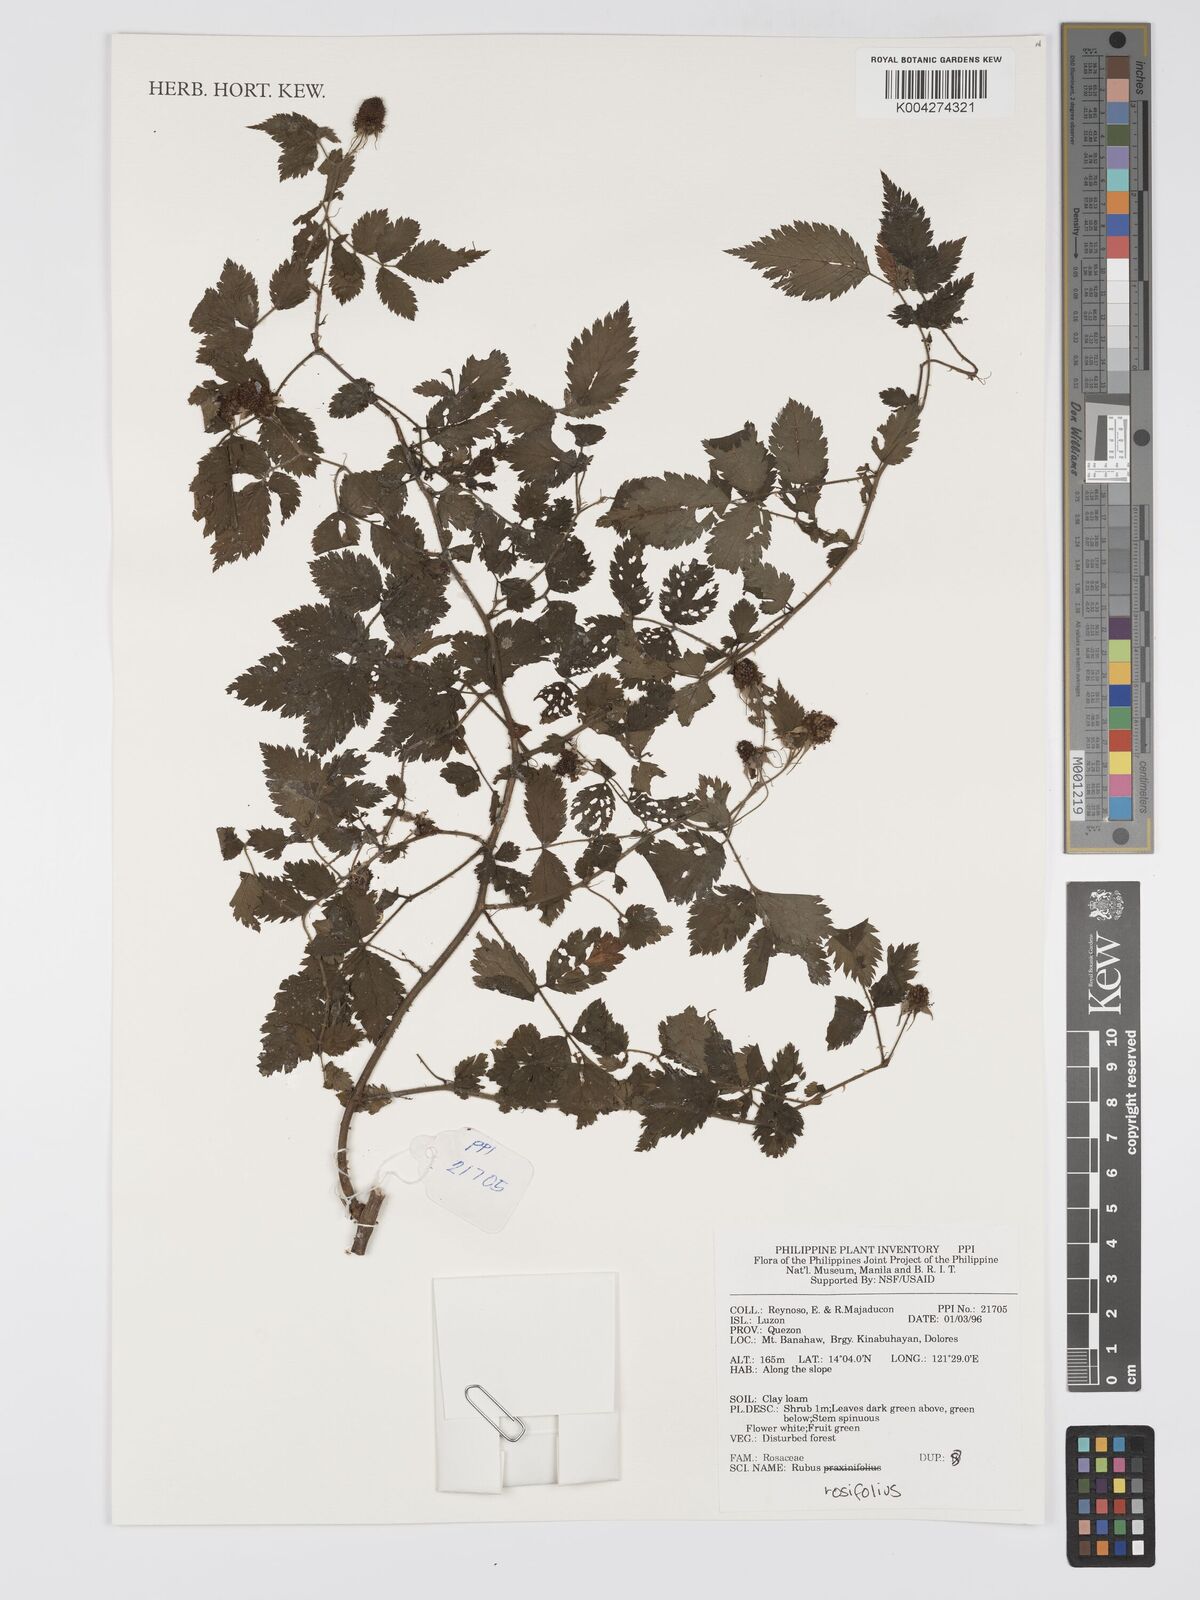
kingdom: Plantae
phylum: Tracheophyta
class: Magnoliopsida
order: Rosales
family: Rosaceae
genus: Rubus
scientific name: Rubus
